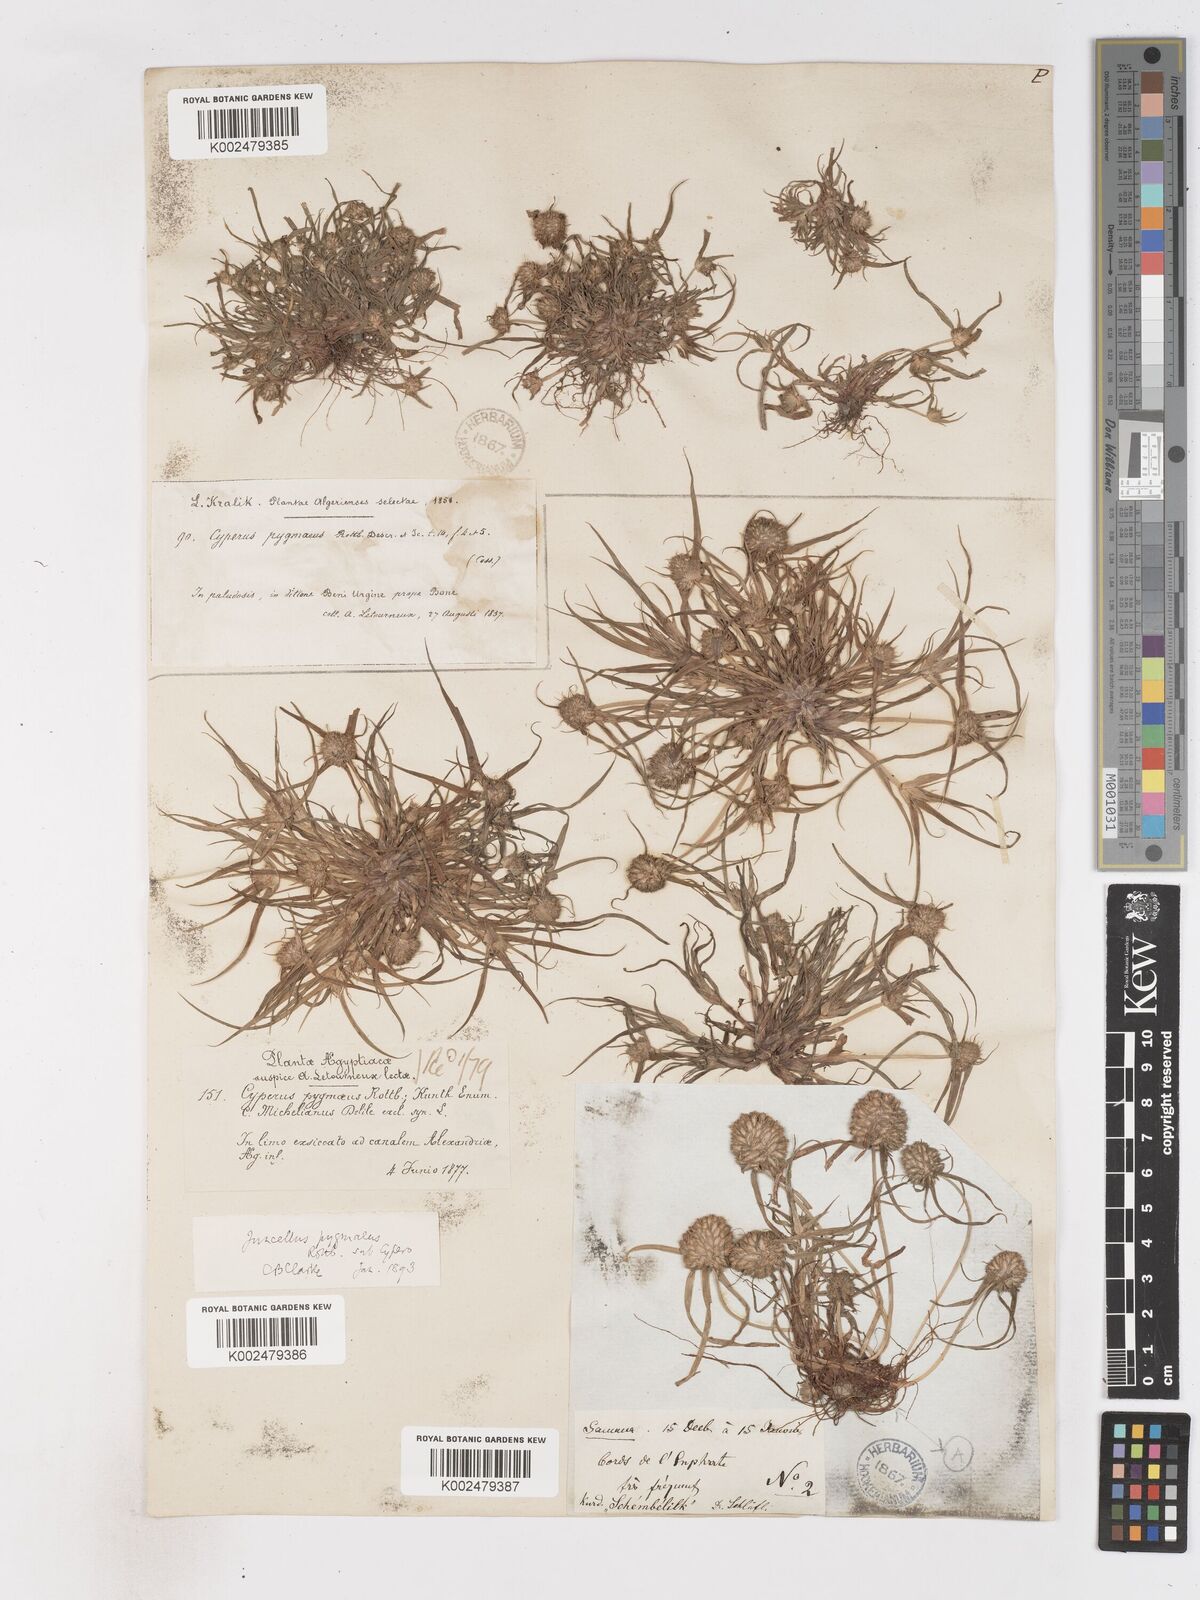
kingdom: Plantae
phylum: Tracheophyta
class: Liliopsida
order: Poales
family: Cyperaceae
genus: Cyperus
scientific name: Cyperus michelianus
